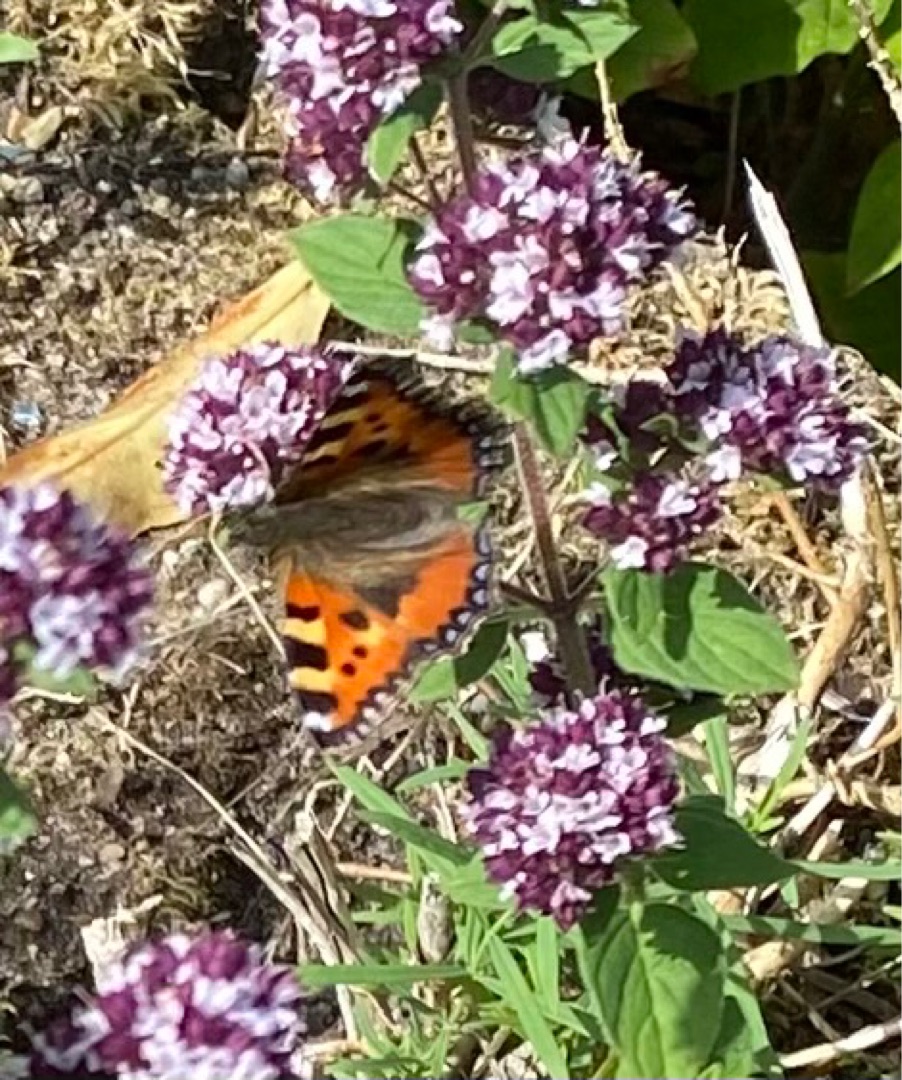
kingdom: Animalia
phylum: Arthropoda
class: Insecta
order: Lepidoptera
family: Nymphalidae
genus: Aglais
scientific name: Aglais urticae
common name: Nældens takvinge
